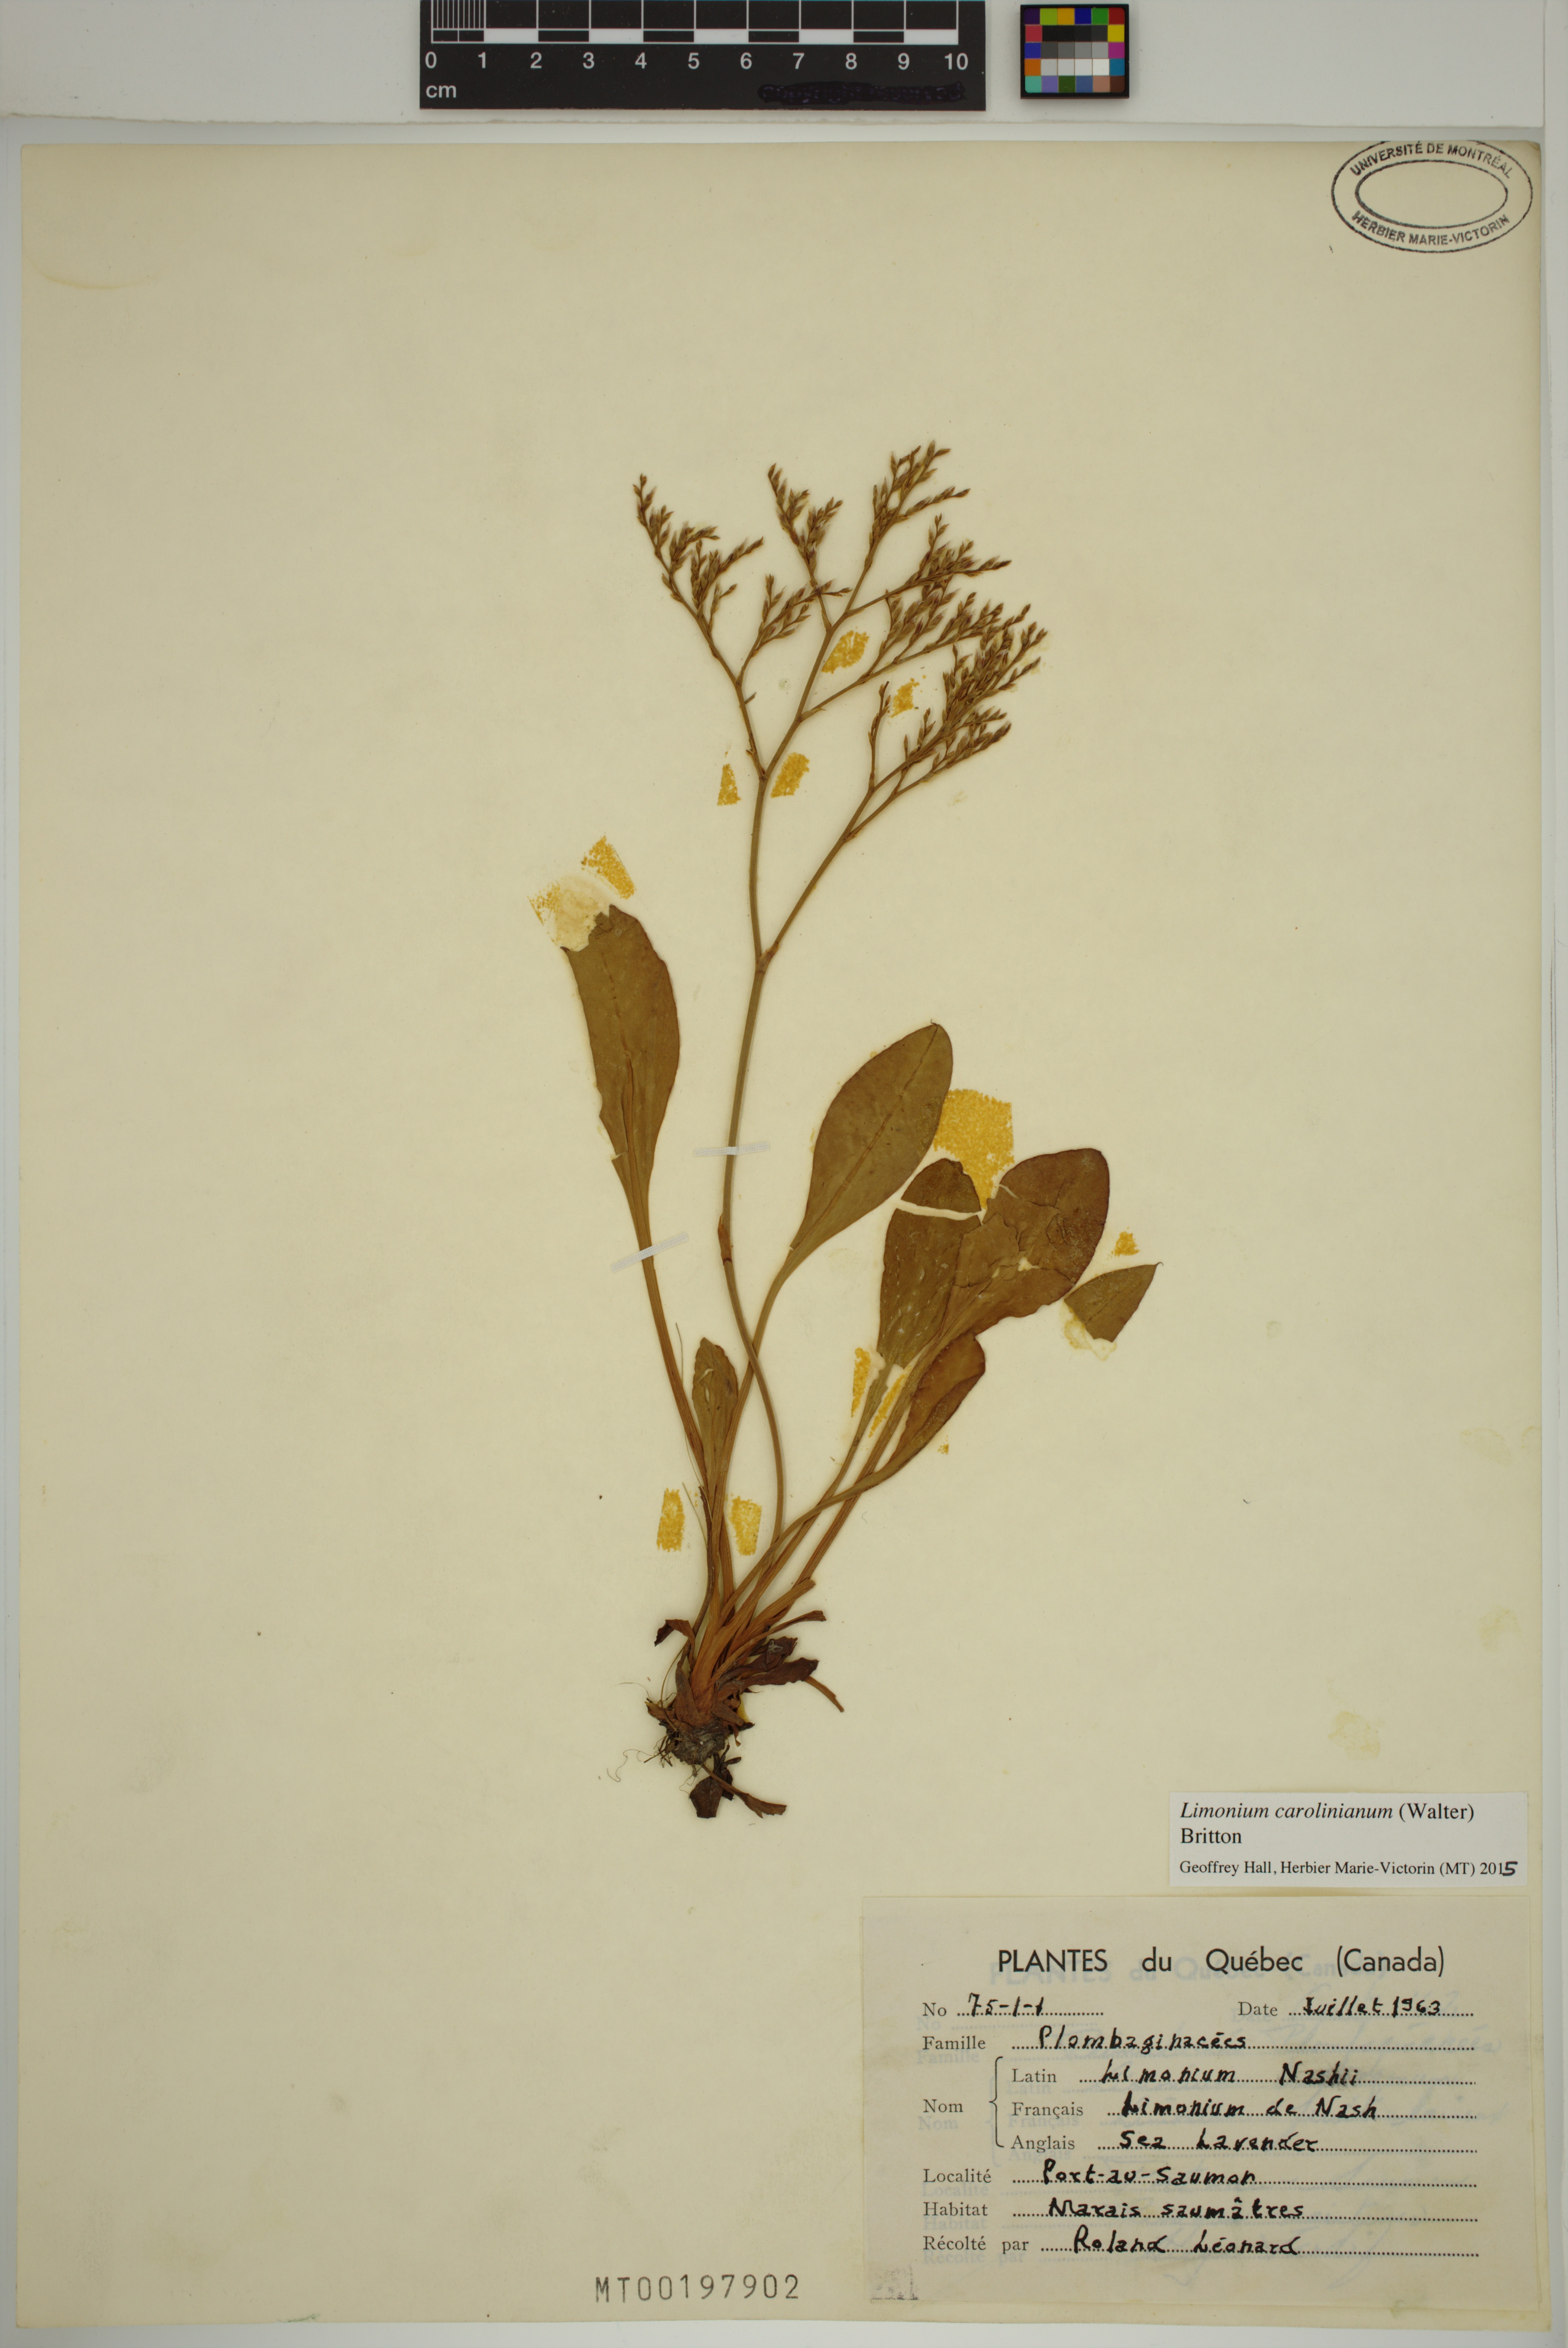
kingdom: Plantae
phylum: Tracheophyta
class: Magnoliopsida
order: Caryophyllales
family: Plumbaginaceae
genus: Limonium
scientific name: Limonium carolinianum
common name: Carolina sea lavender
